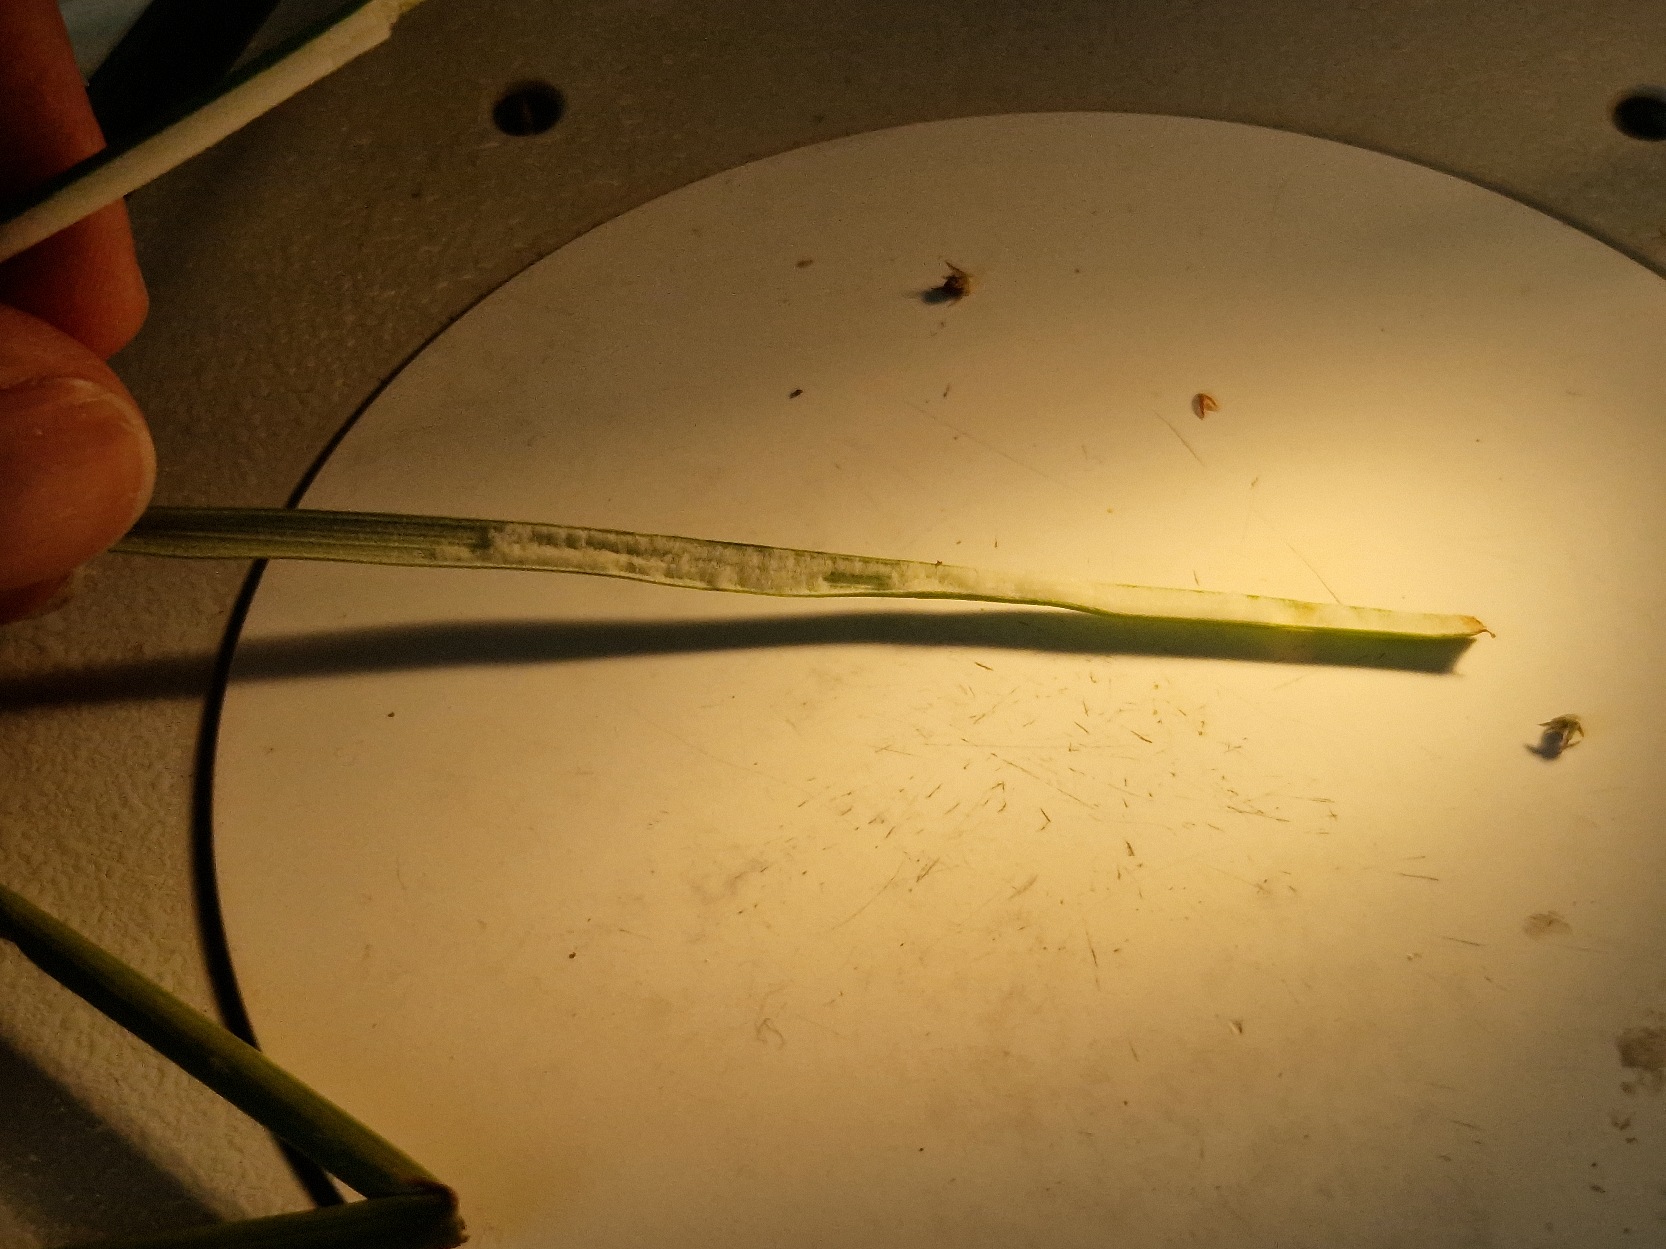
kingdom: Plantae
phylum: Tracheophyta
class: Liliopsida
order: Poales
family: Juncaceae
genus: Juncus
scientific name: Juncus conglomeratus
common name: Knop-siv
